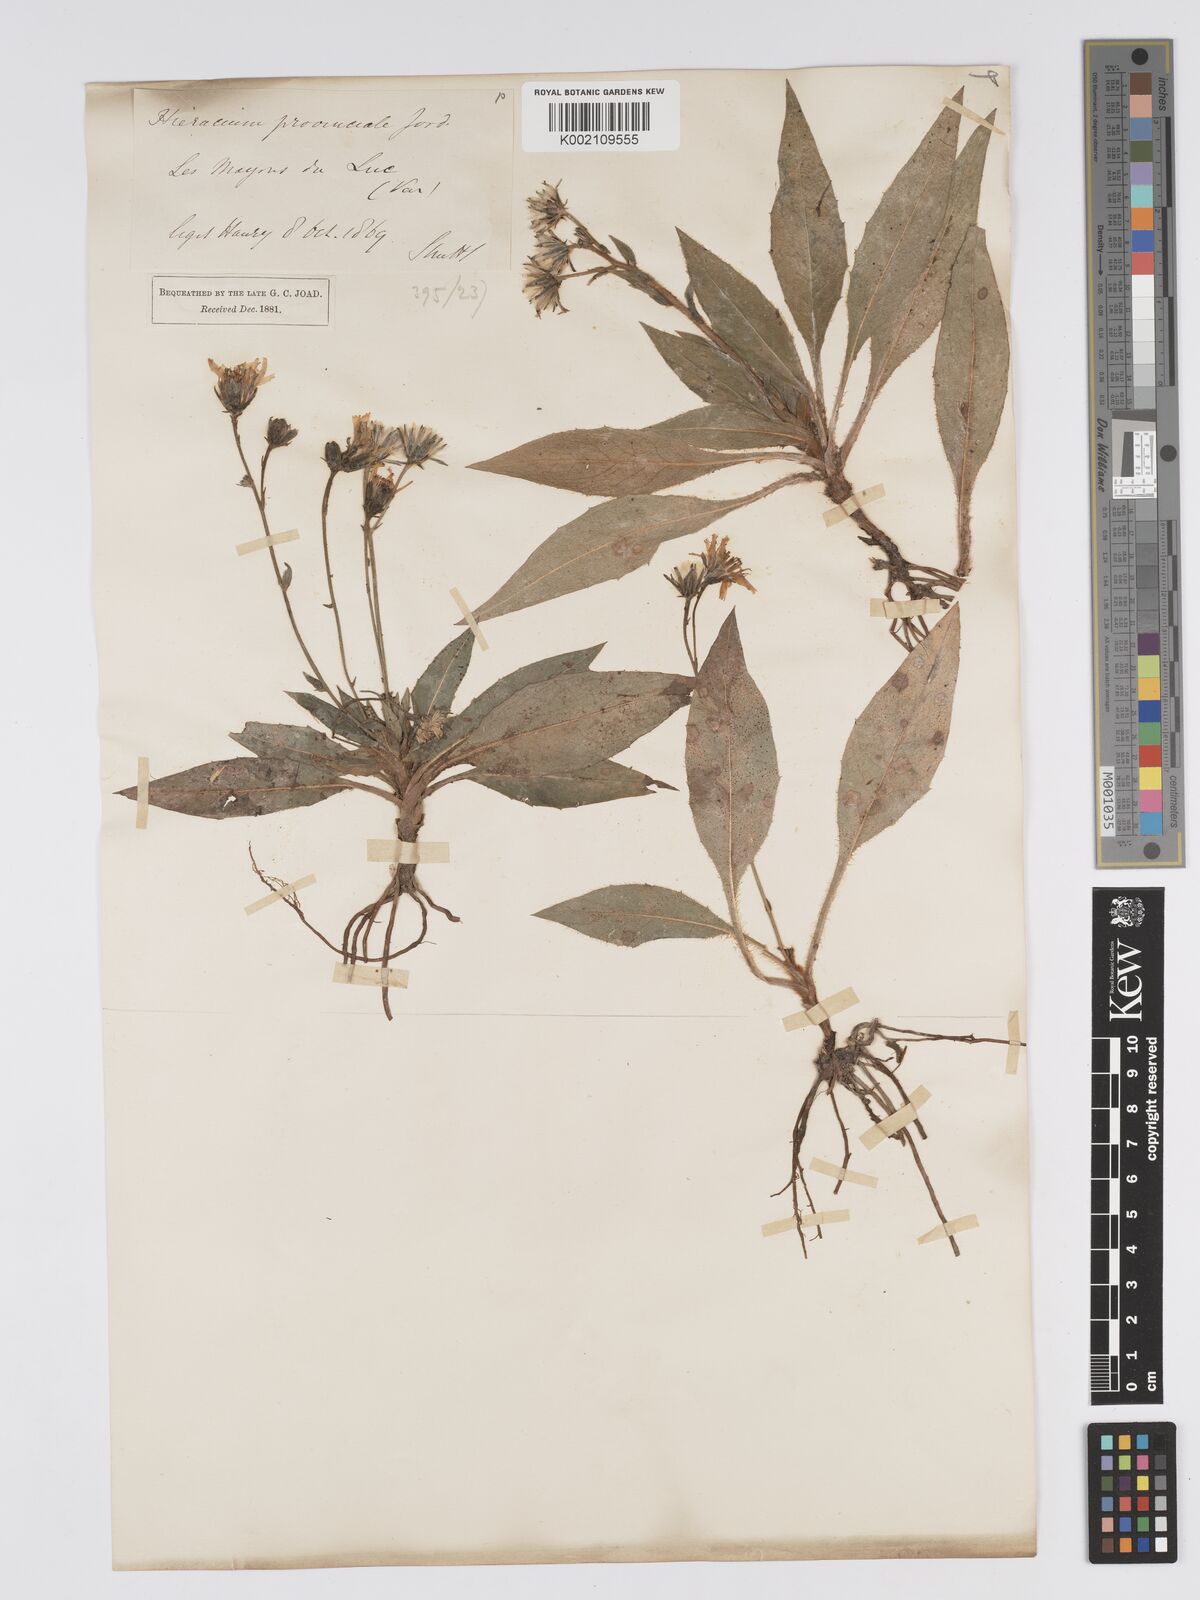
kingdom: Plantae
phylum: Tracheophyta
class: Magnoliopsida
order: Asterales
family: Asteraceae
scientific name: Asteraceae
